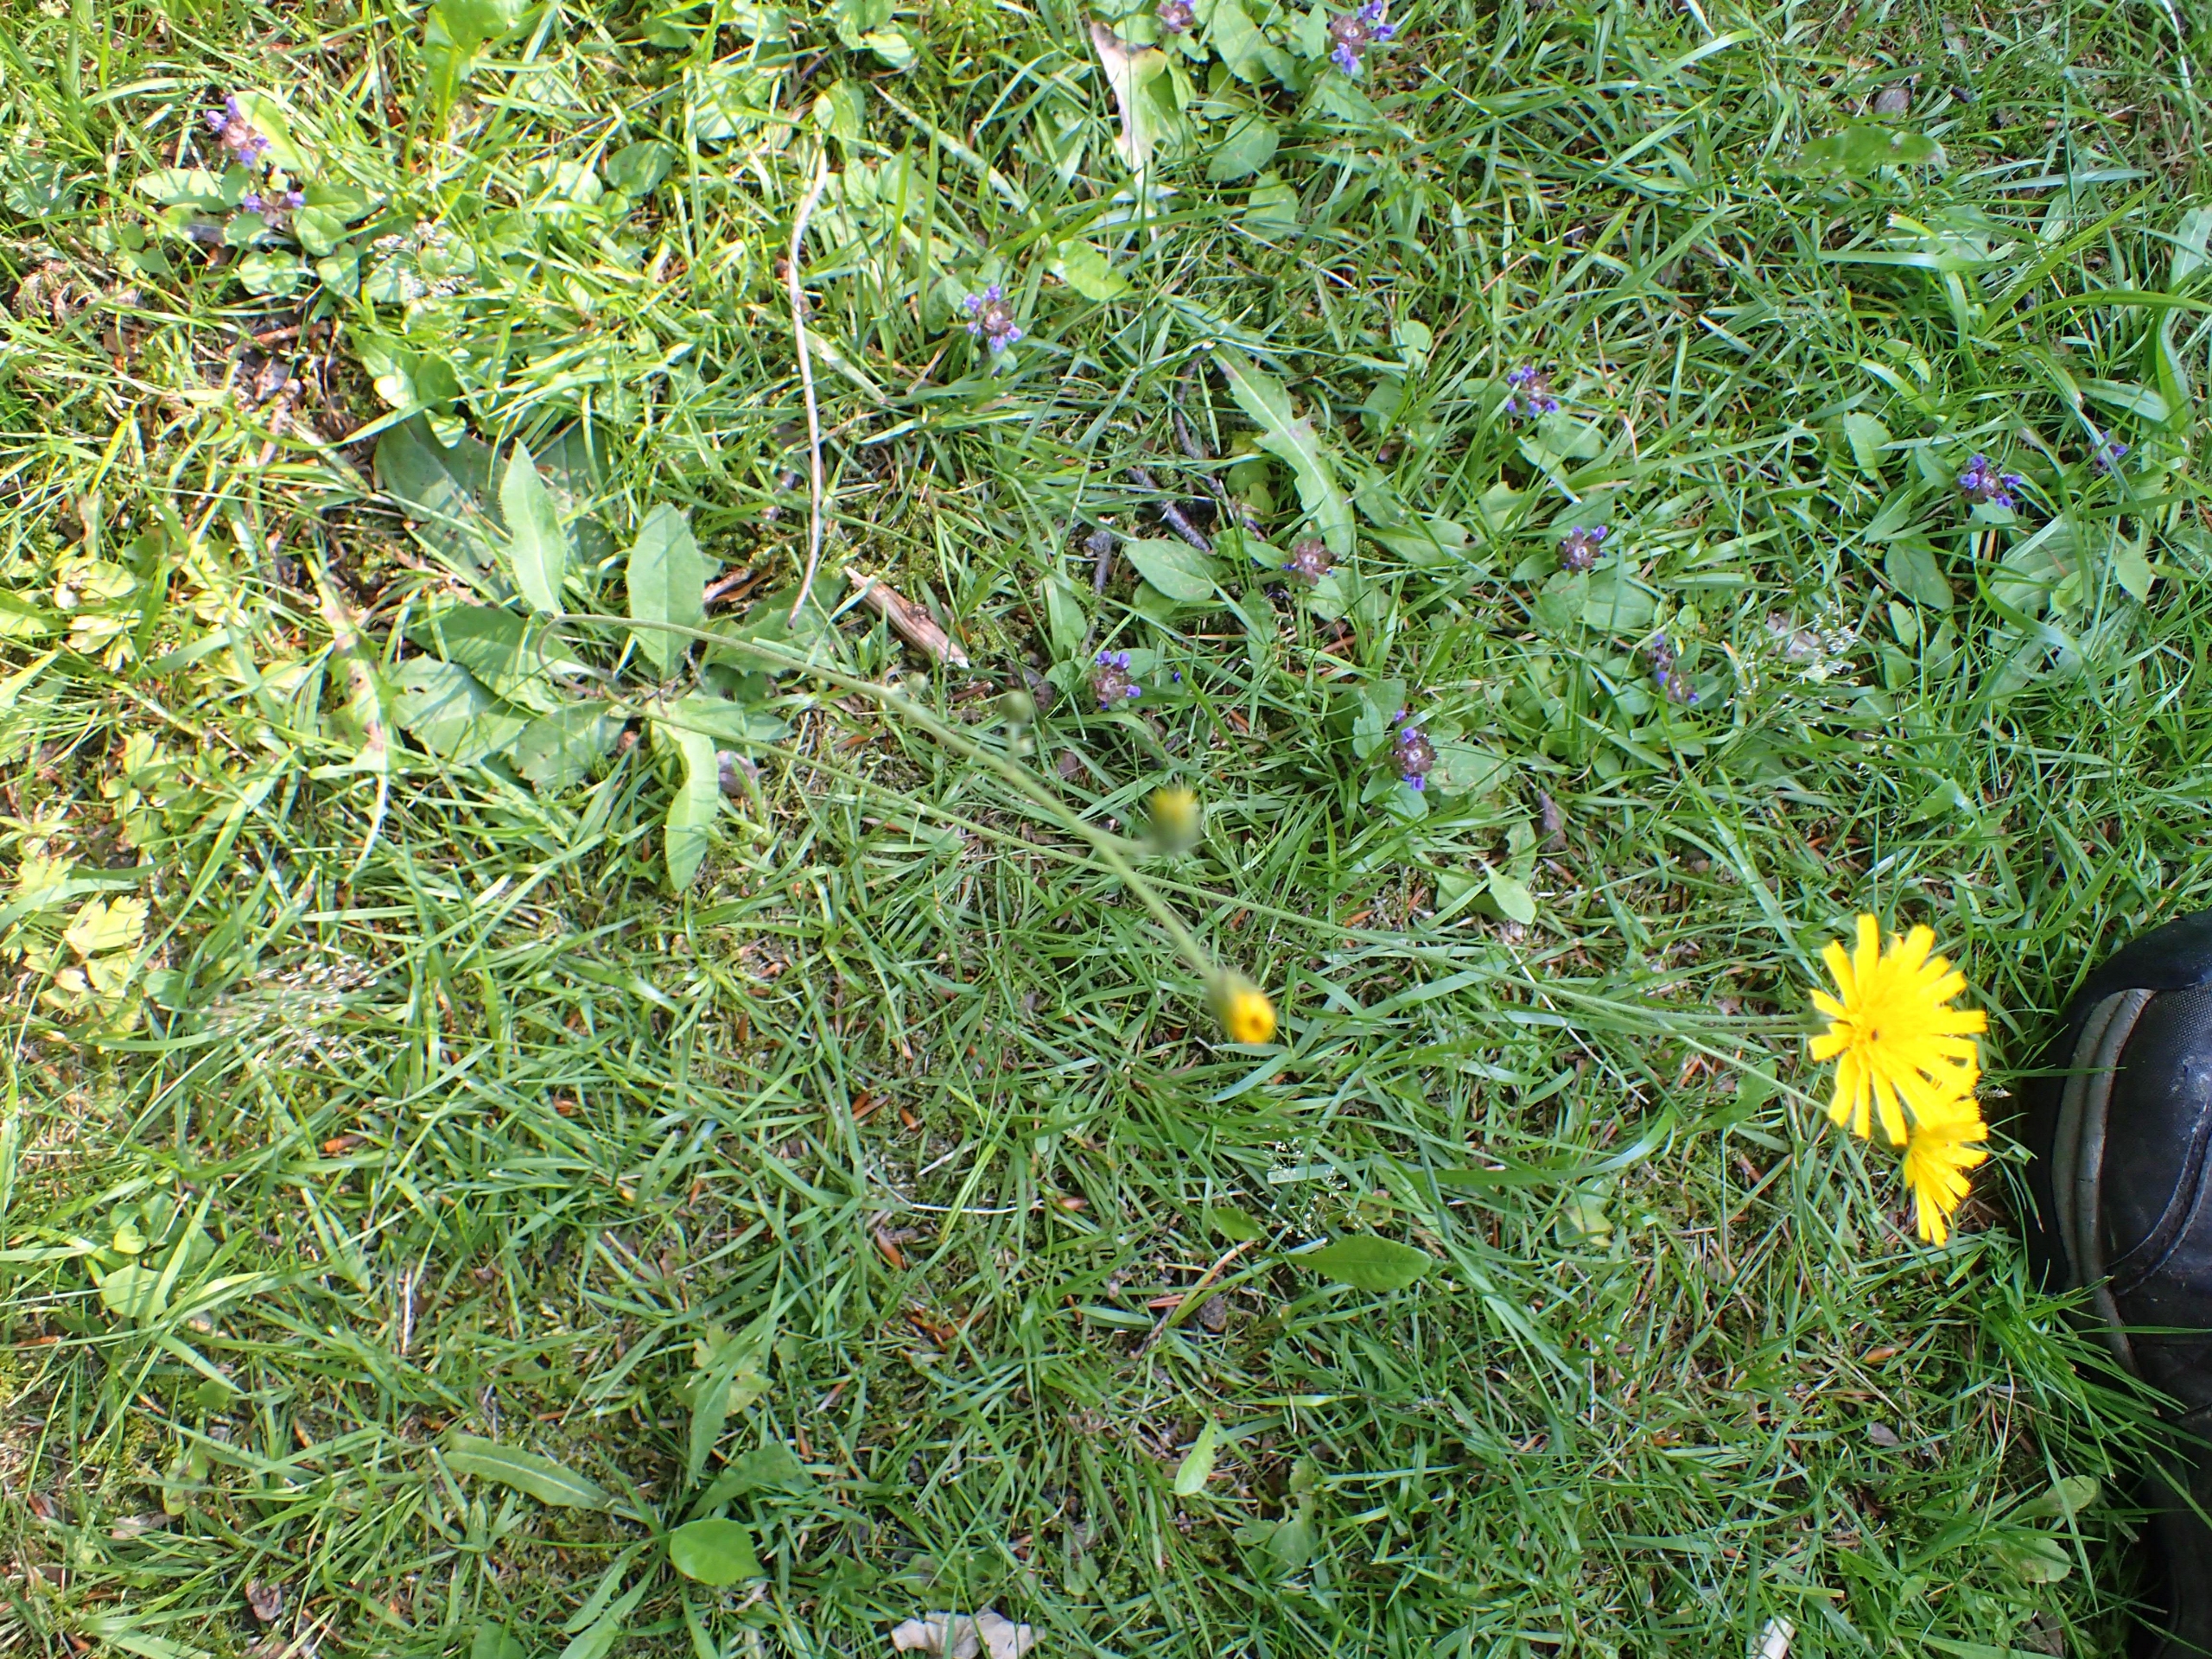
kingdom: Plantae
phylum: Tracheophyta
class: Magnoliopsida
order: Asterales
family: Asteraceae
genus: Hieracium
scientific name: Hieracium
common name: Høgeurt (Hieracium-slægten)
